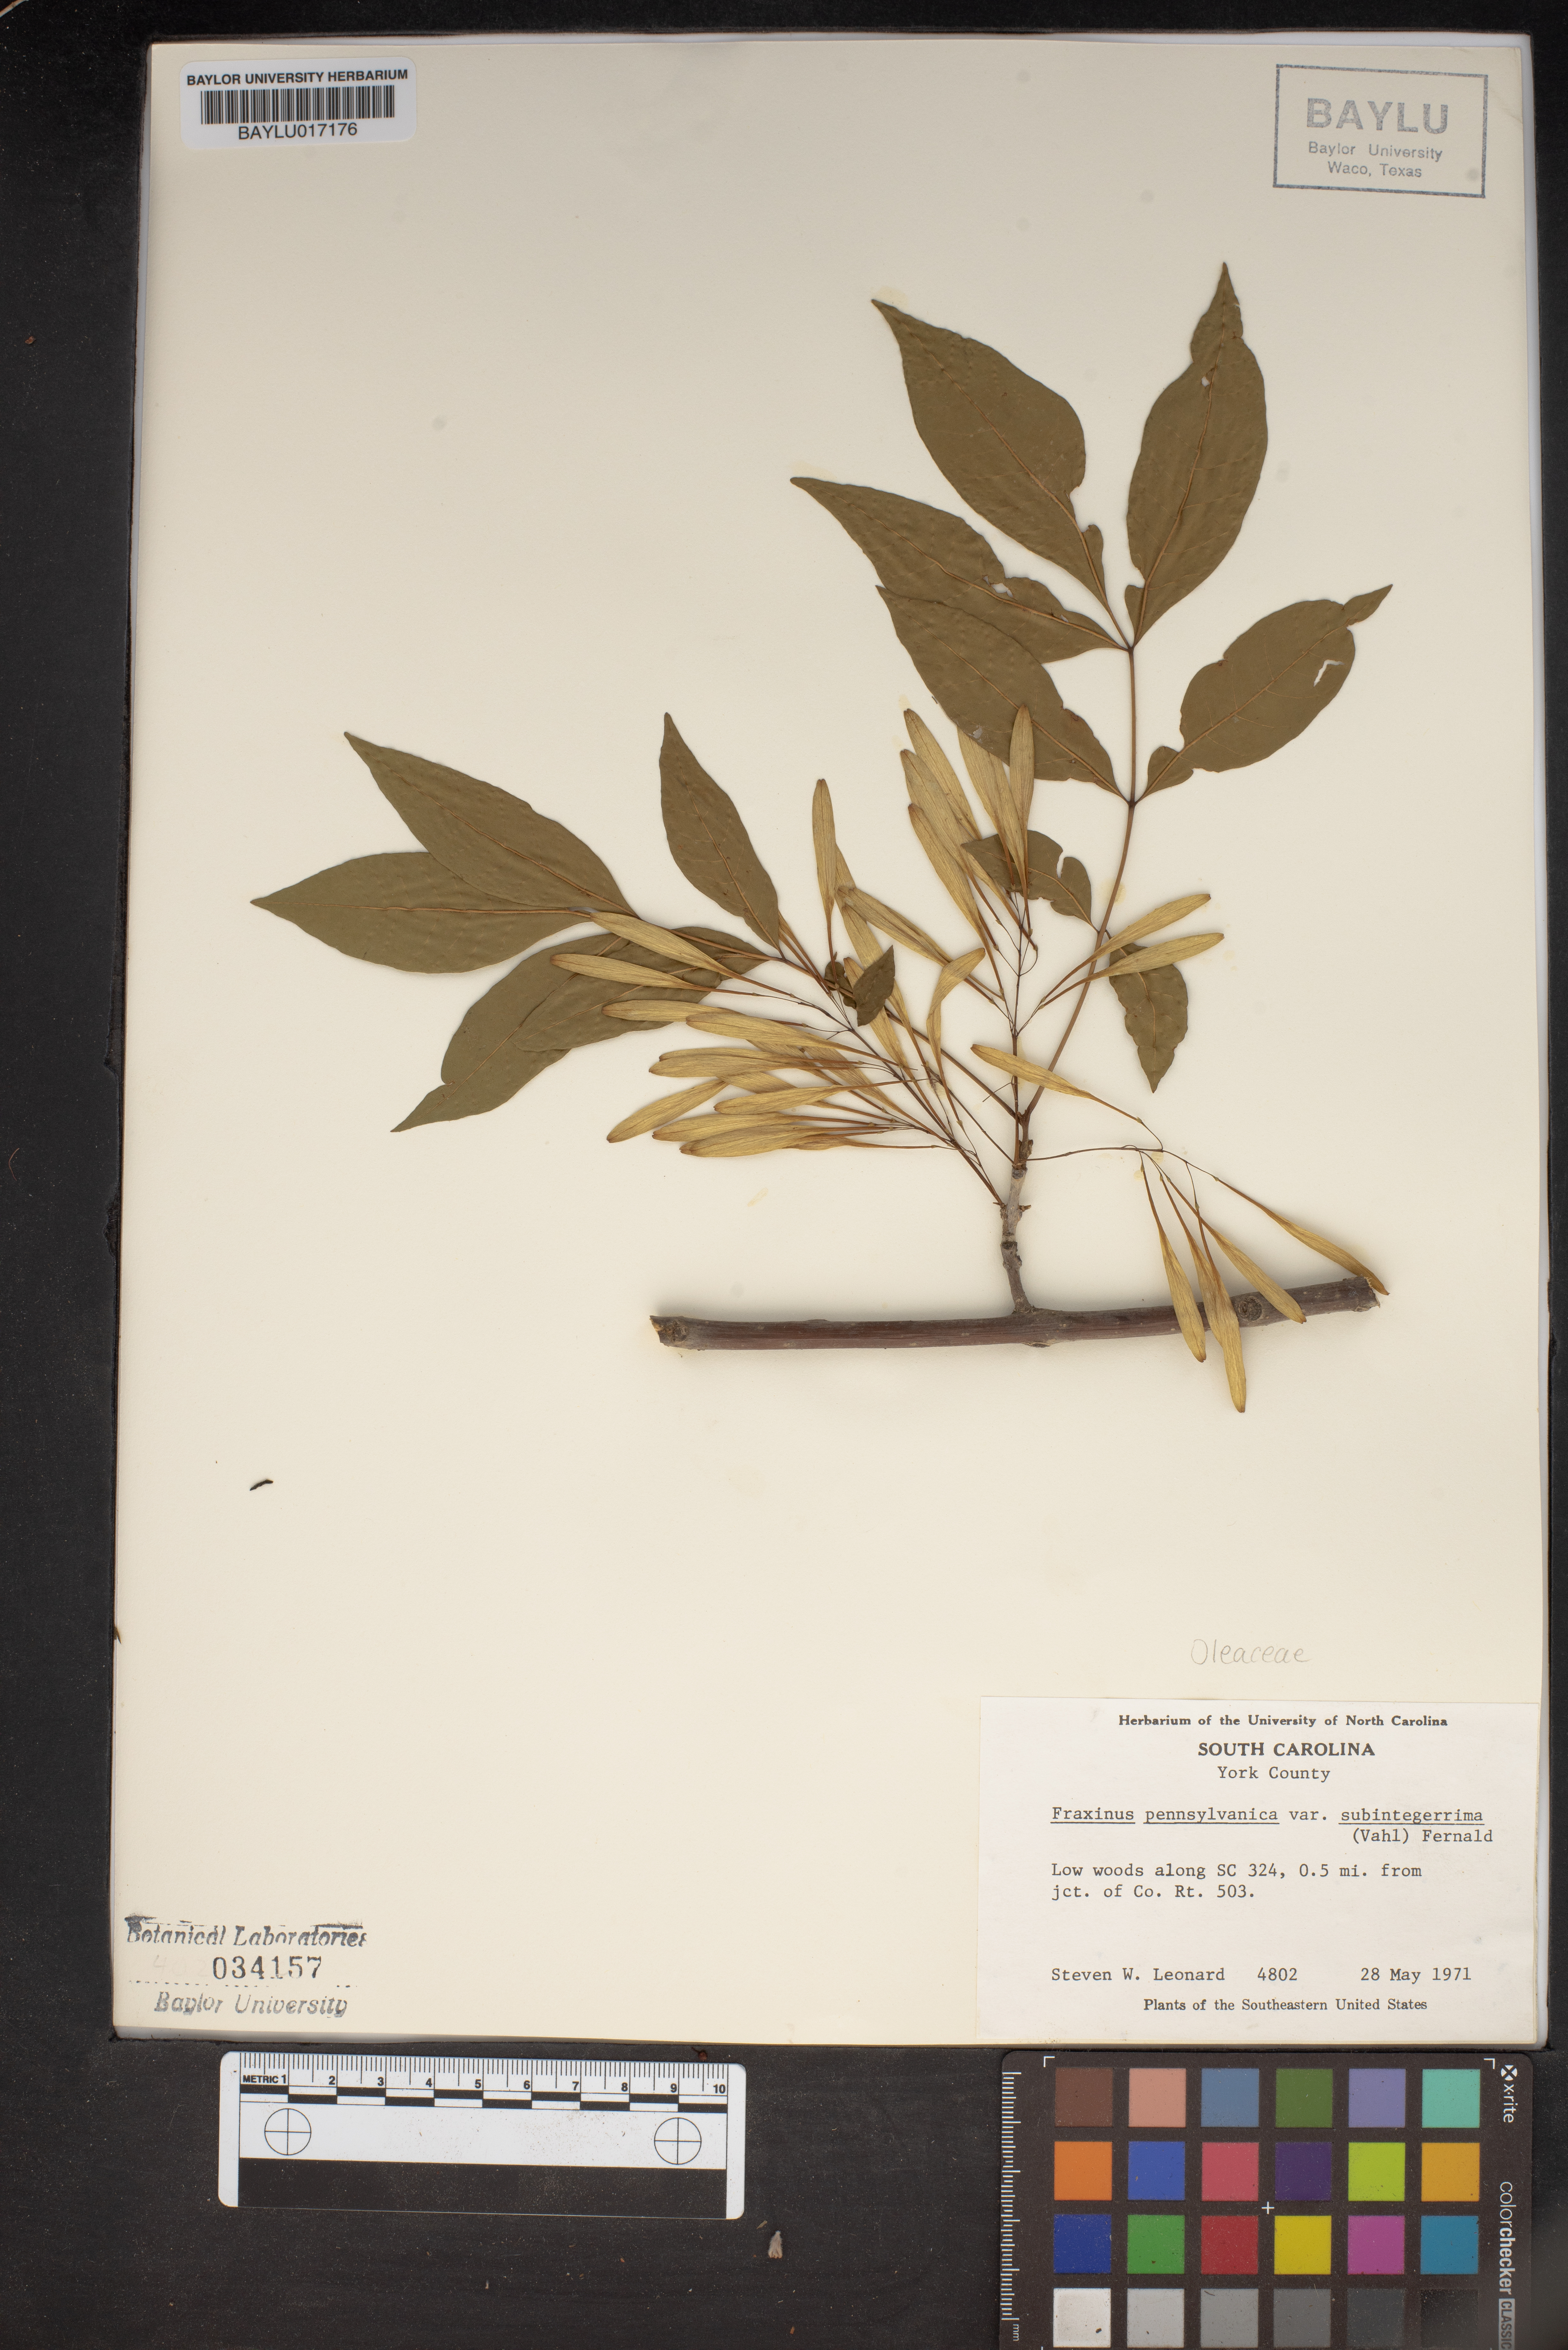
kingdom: Plantae
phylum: Tracheophyta
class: Magnoliopsida
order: Lamiales
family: Oleaceae
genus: Fraxinus
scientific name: Fraxinus pennsylvanica
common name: Green ash
